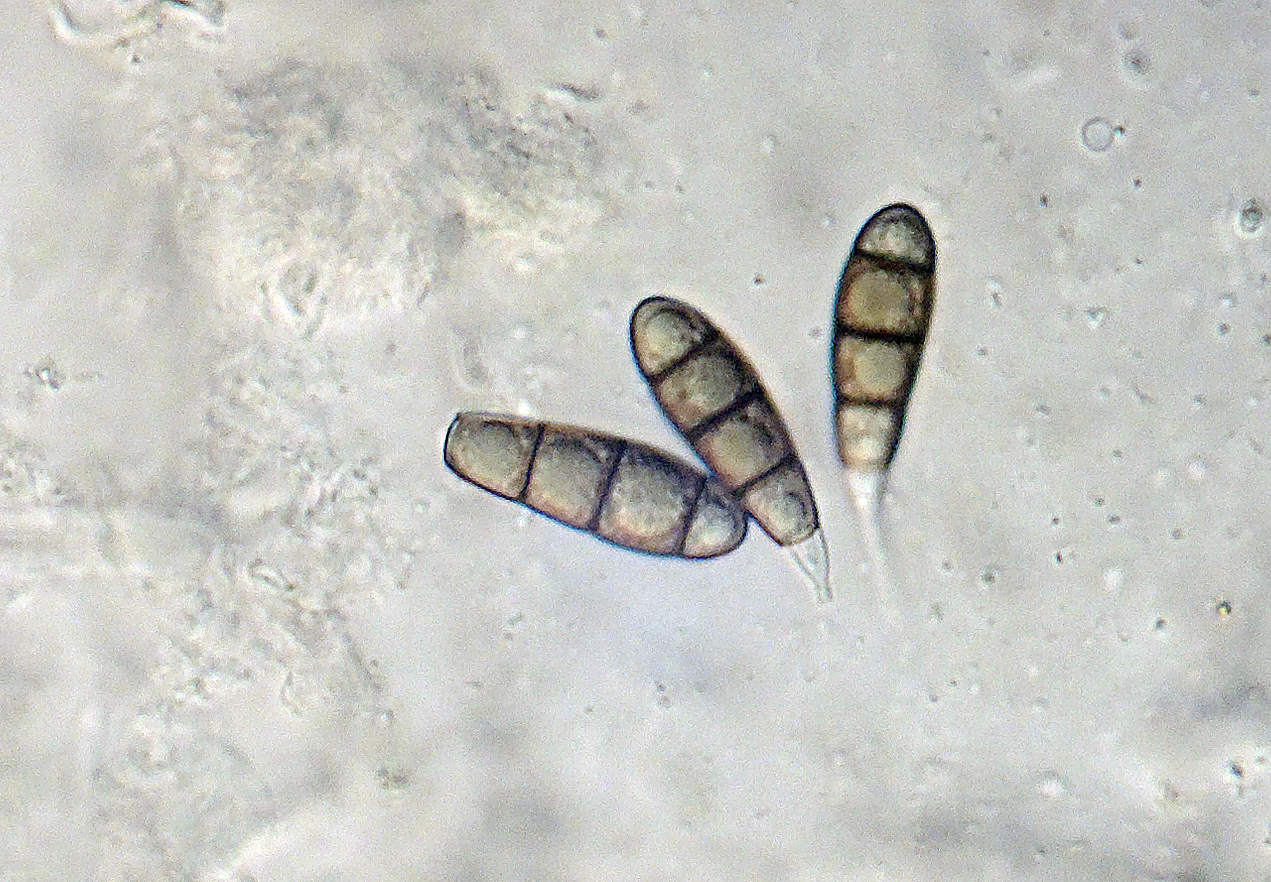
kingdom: Fungi
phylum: Ascomycota
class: Dothideomycetes
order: Tubeufiales
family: Tubeufiaceae
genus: Rebentischia
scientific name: Rebentischia unicaudata
